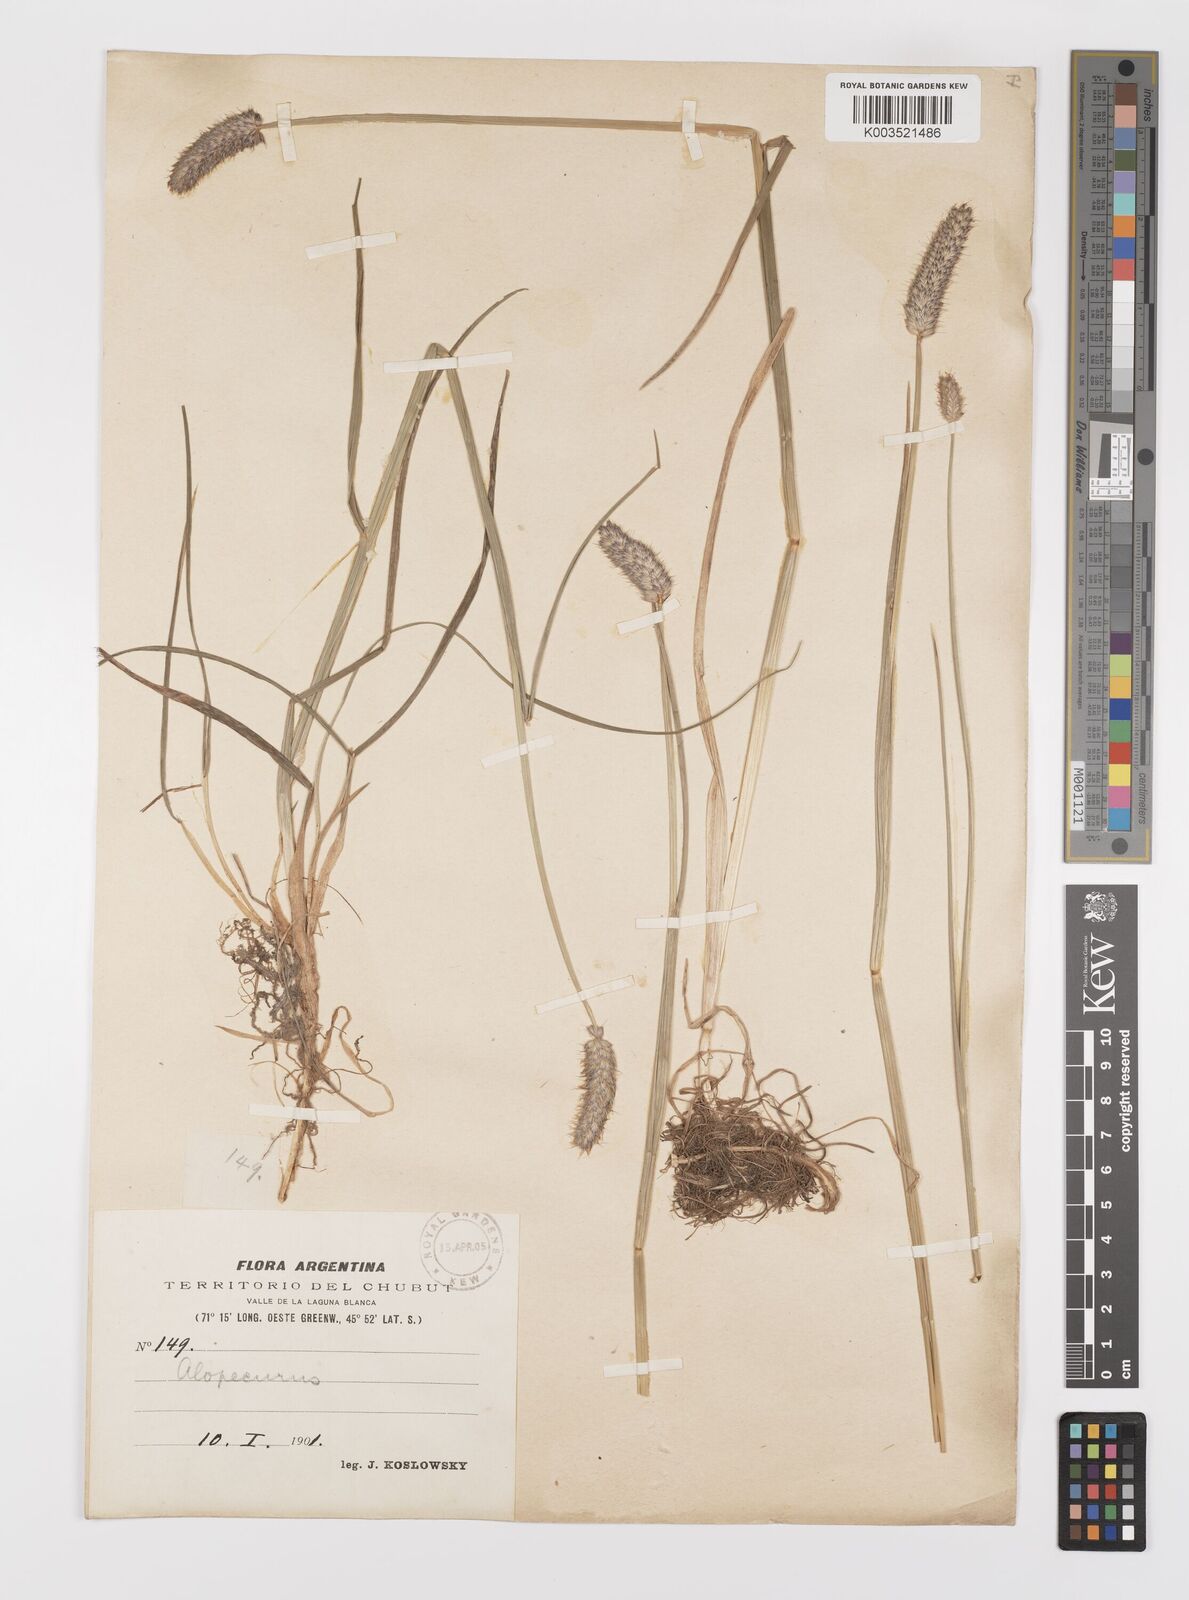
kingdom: Plantae
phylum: Tracheophyta
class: Liliopsida
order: Poales
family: Poaceae
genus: Alopecurus
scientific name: Alopecurus magellanicus
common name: Alpine foxtail
